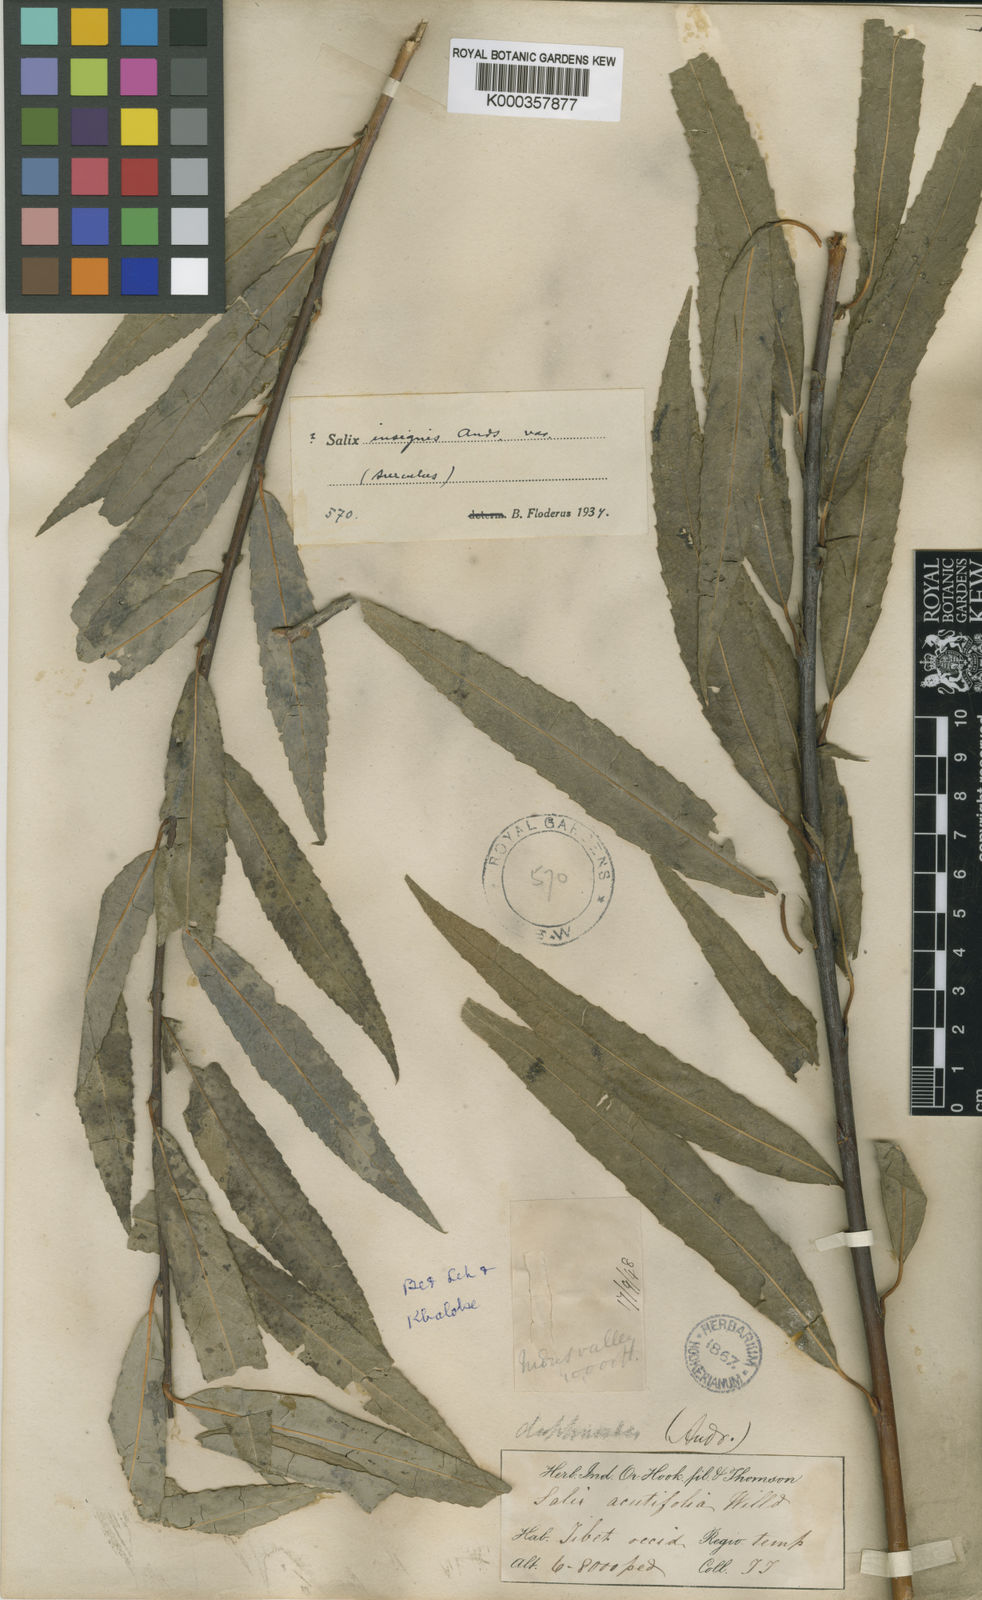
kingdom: Plantae
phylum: Tracheophyta
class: Magnoliopsida
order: Malpighiales
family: Salicaceae
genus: Salix
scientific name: Salix daphnoides
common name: European violet-willow
